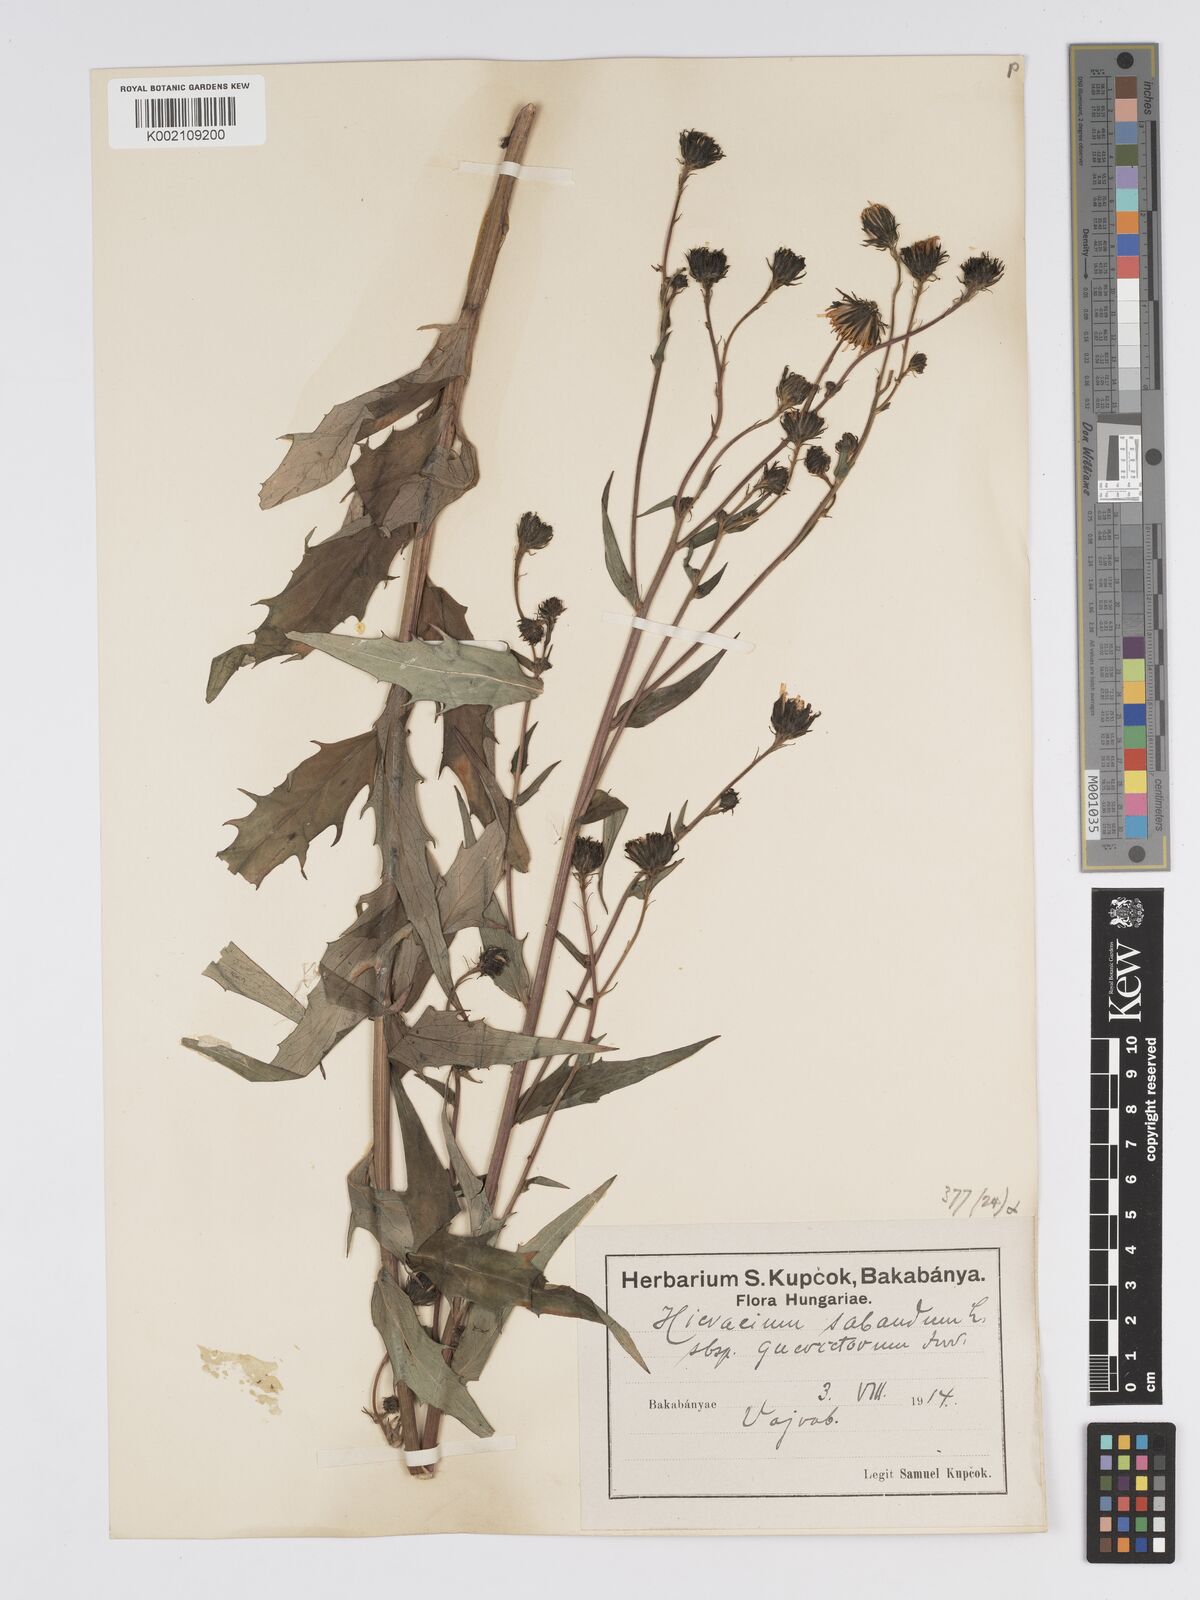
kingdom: Plantae
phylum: Tracheophyta
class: Magnoliopsida
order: Asterales
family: Asteraceae
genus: Hieracium
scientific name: Hieracium sabaudum
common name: New england hawkweed
